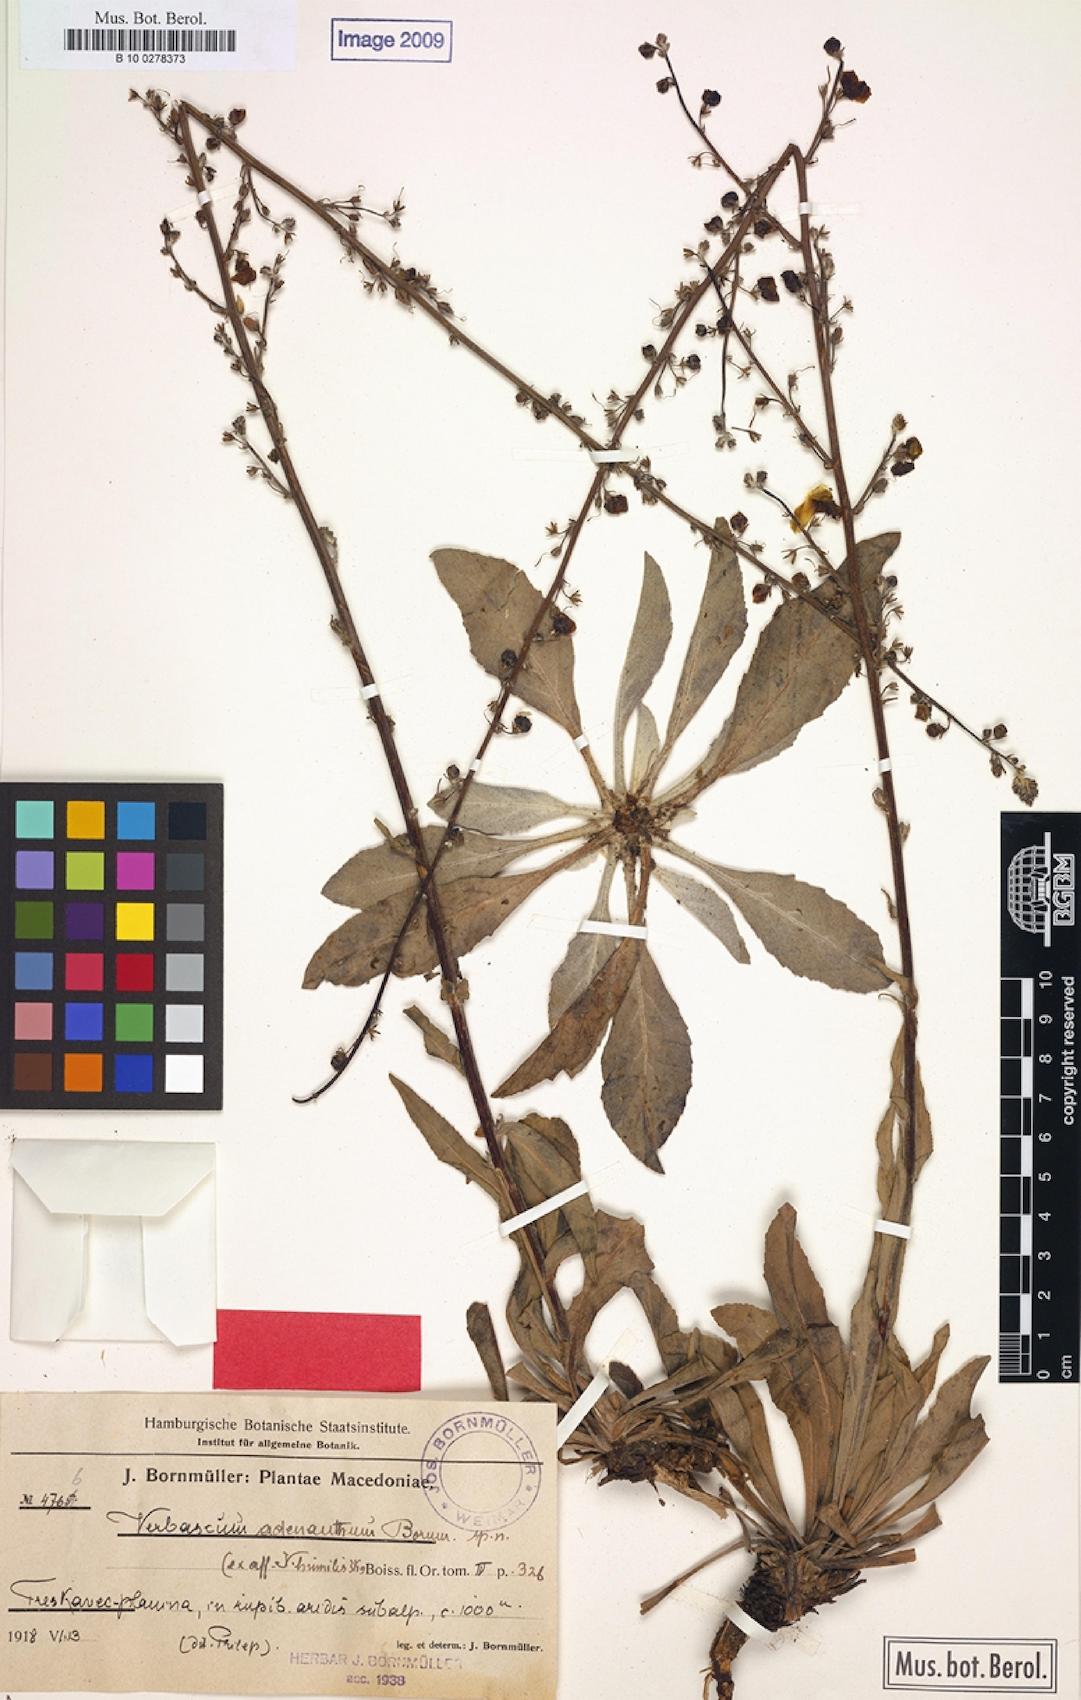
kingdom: Plantae
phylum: Tracheophyta
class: Magnoliopsida
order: Lamiales
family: Scrophulariaceae
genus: Verbascum
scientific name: Verbascum adenanthum
